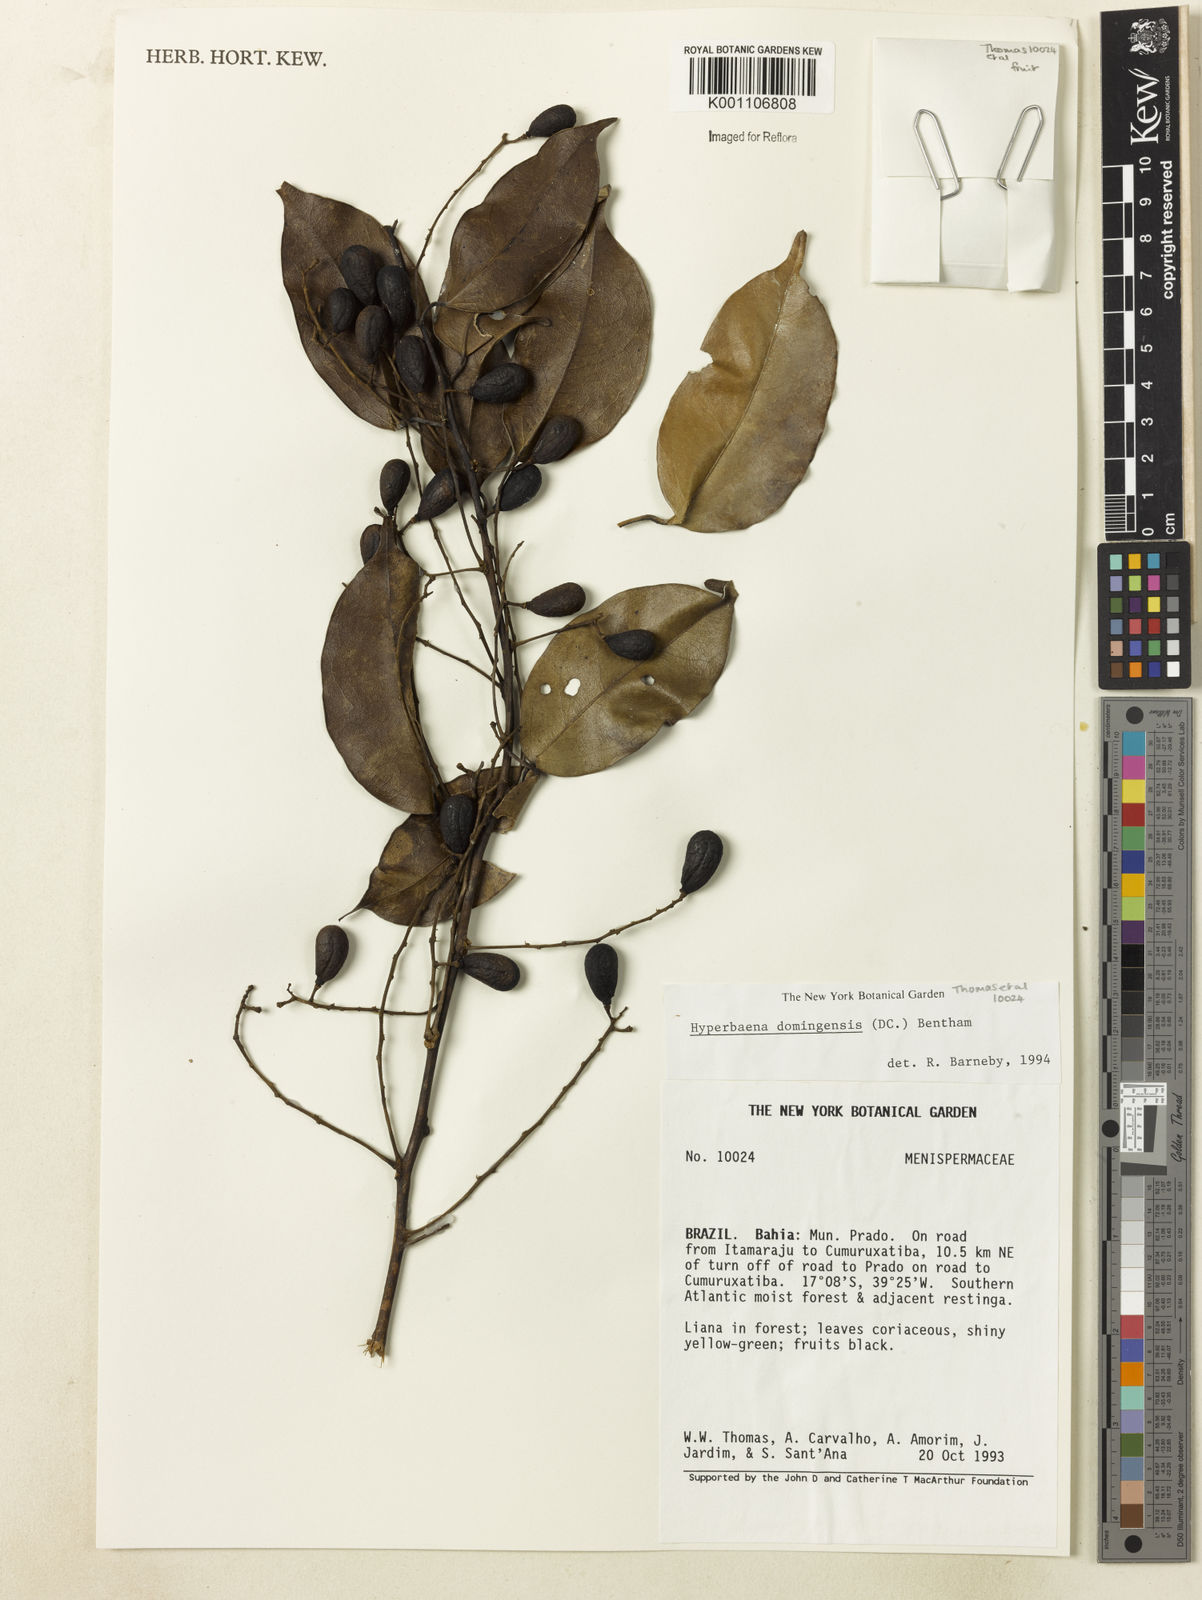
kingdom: Plantae
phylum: Tracheophyta
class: Magnoliopsida
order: Ranunculales
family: Menispermaceae
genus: Hyperbaena
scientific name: Hyperbaena domingensis
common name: Forest snakevine
